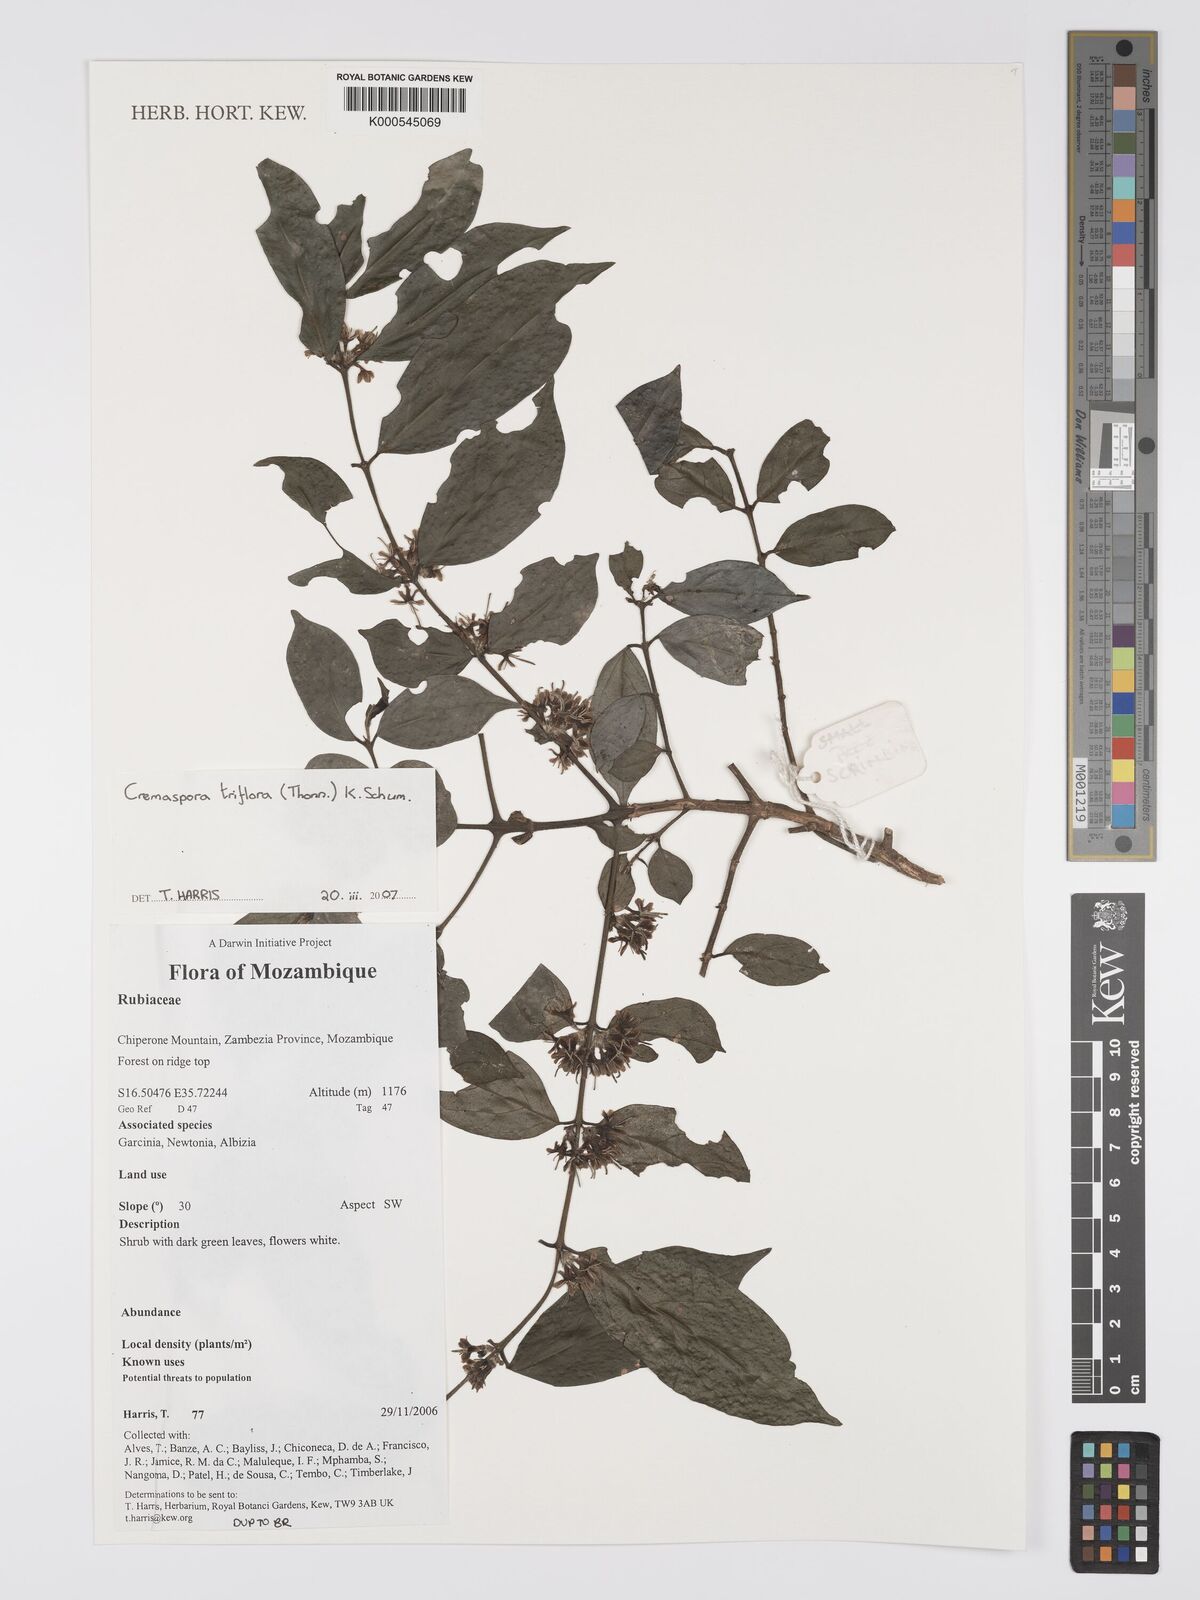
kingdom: Plantae
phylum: Tracheophyta
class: Magnoliopsida
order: Gentianales
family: Rubiaceae
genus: Cremaspora
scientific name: Cremaspora triflora
